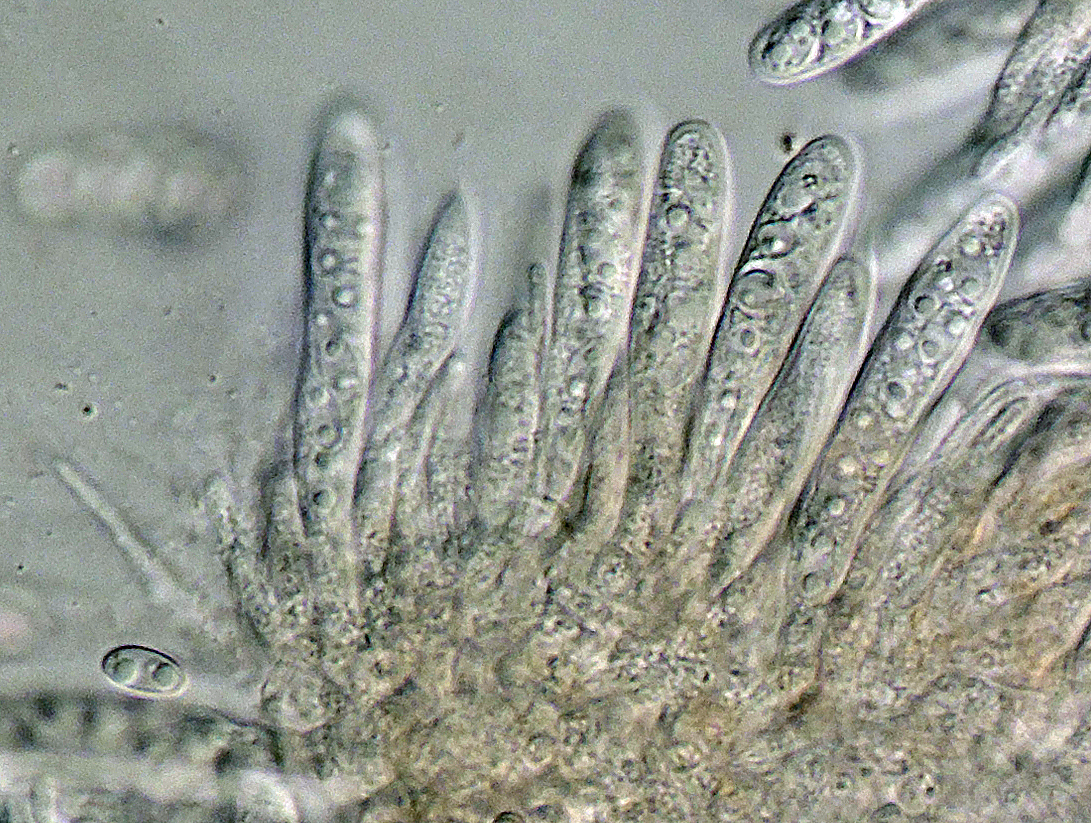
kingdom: Fungi
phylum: Ascomycota
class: Leotiomycetes
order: Helotiales
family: Cordieritidaceae
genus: Unguiculariopsis
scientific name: Unguiculariopsis thallophila
